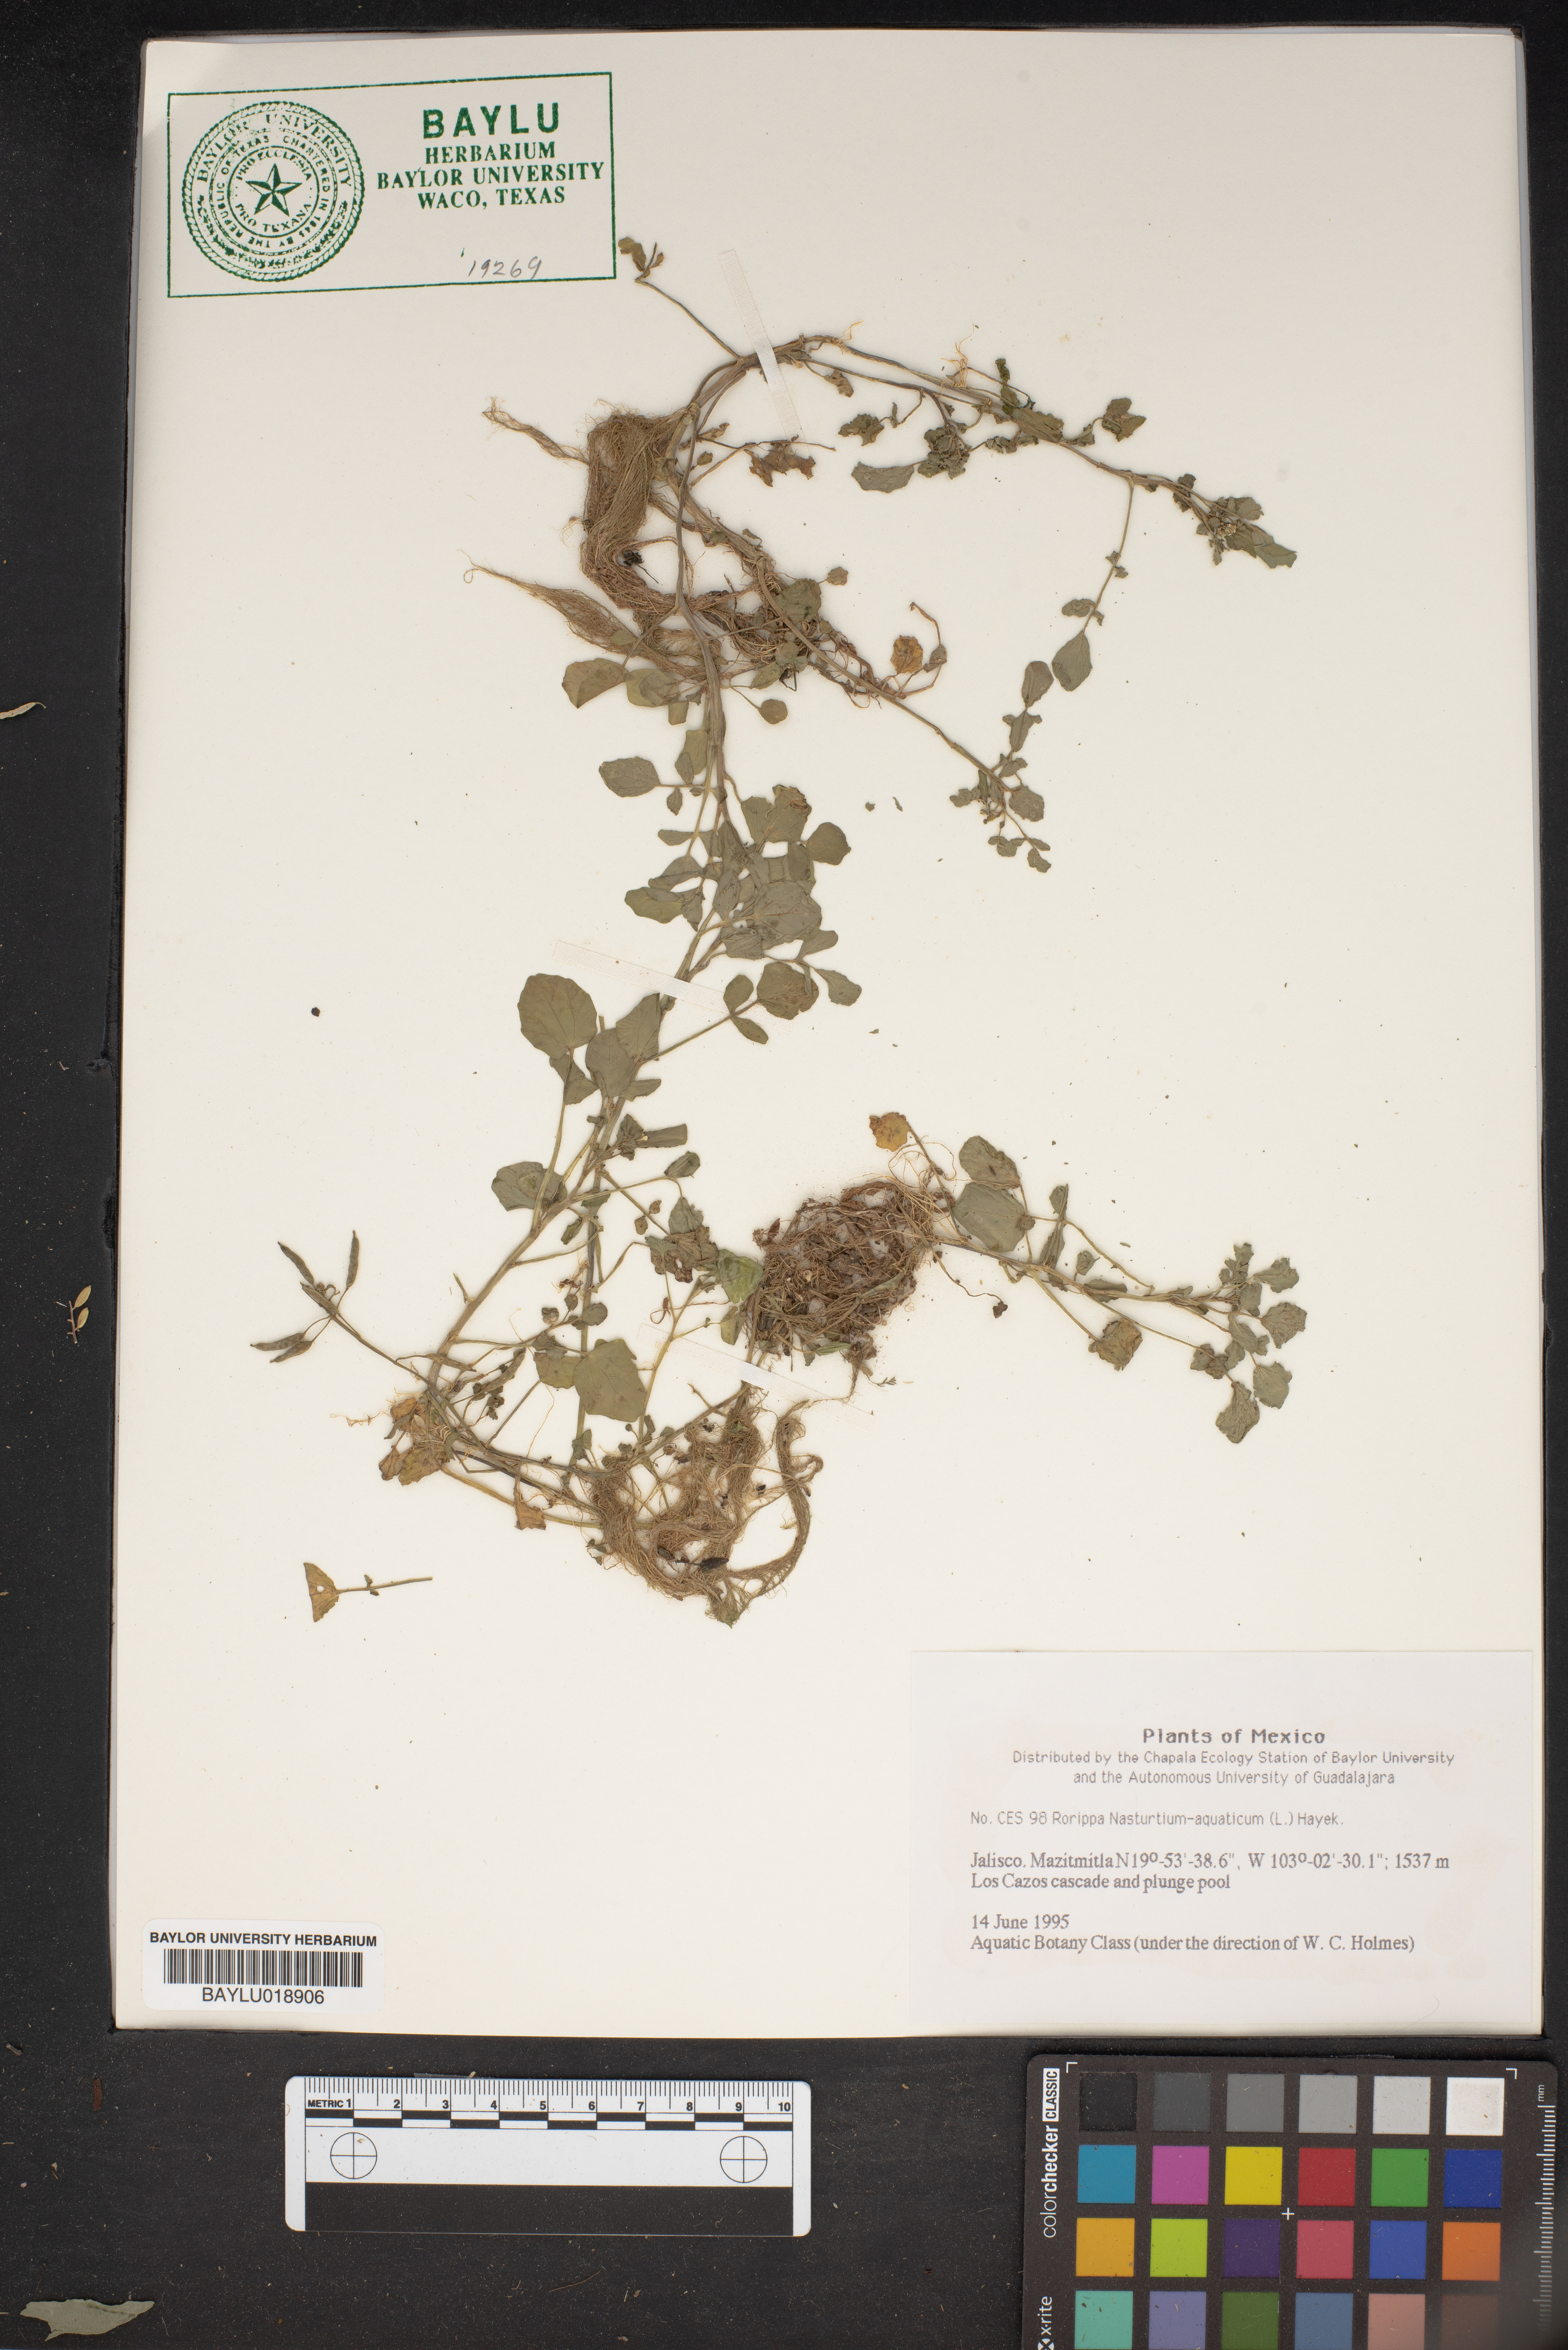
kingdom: Plantae
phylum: Tracheophyta
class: Magnoliopsida
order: Brassicales
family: Brassicaceae
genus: Nasturtium
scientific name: Nasturtium officinale
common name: Watercress
